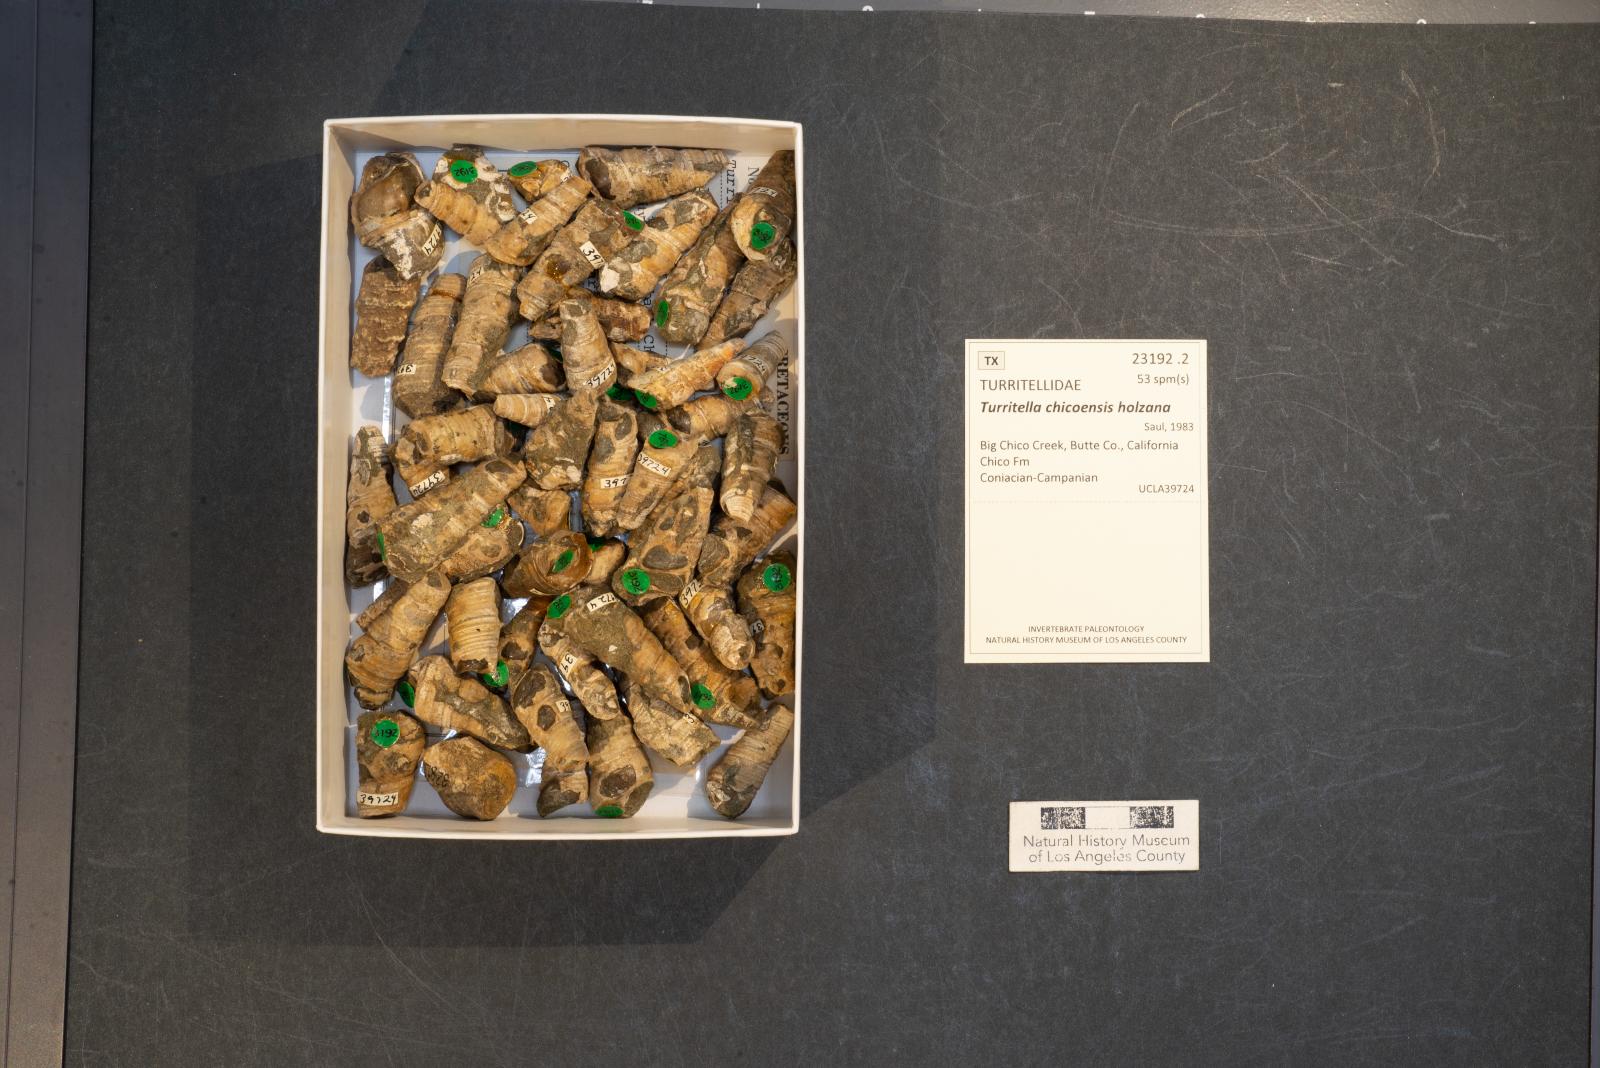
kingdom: Animalia
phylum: Mollusca
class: Gastropoda
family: Turritellidae
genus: Turritella
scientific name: Turritella chicoensis
